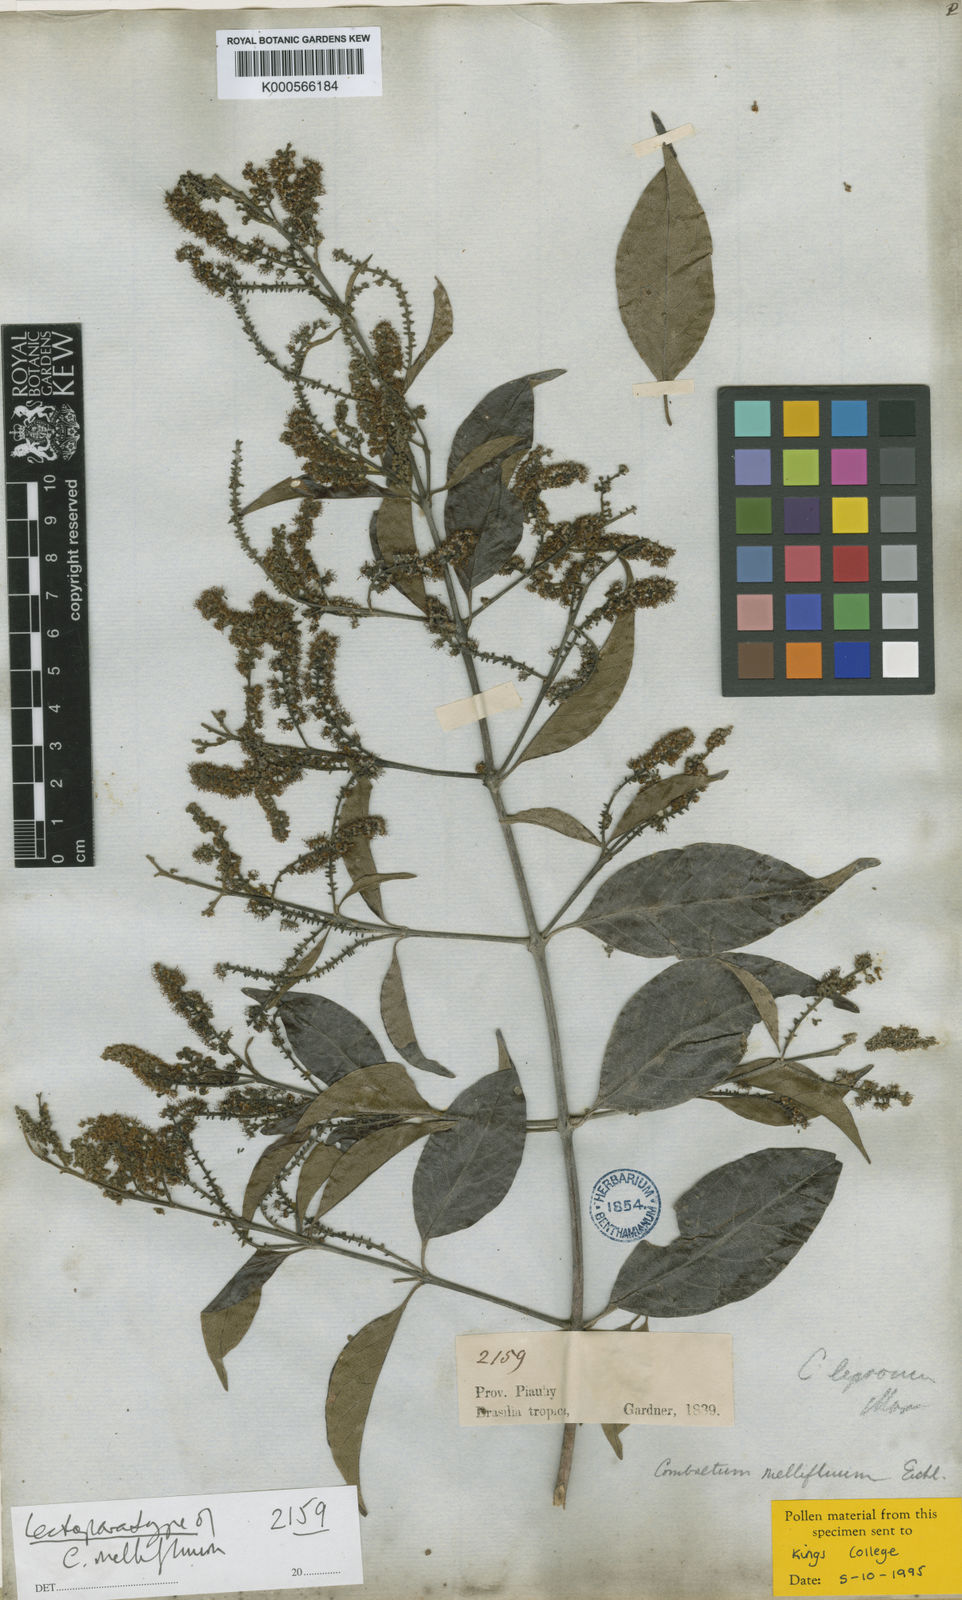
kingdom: Plantae
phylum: Tracheophyta
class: Magnoliopsida
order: Myrtales
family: Combretaceae
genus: Combretum
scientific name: Combretum mellifluum
